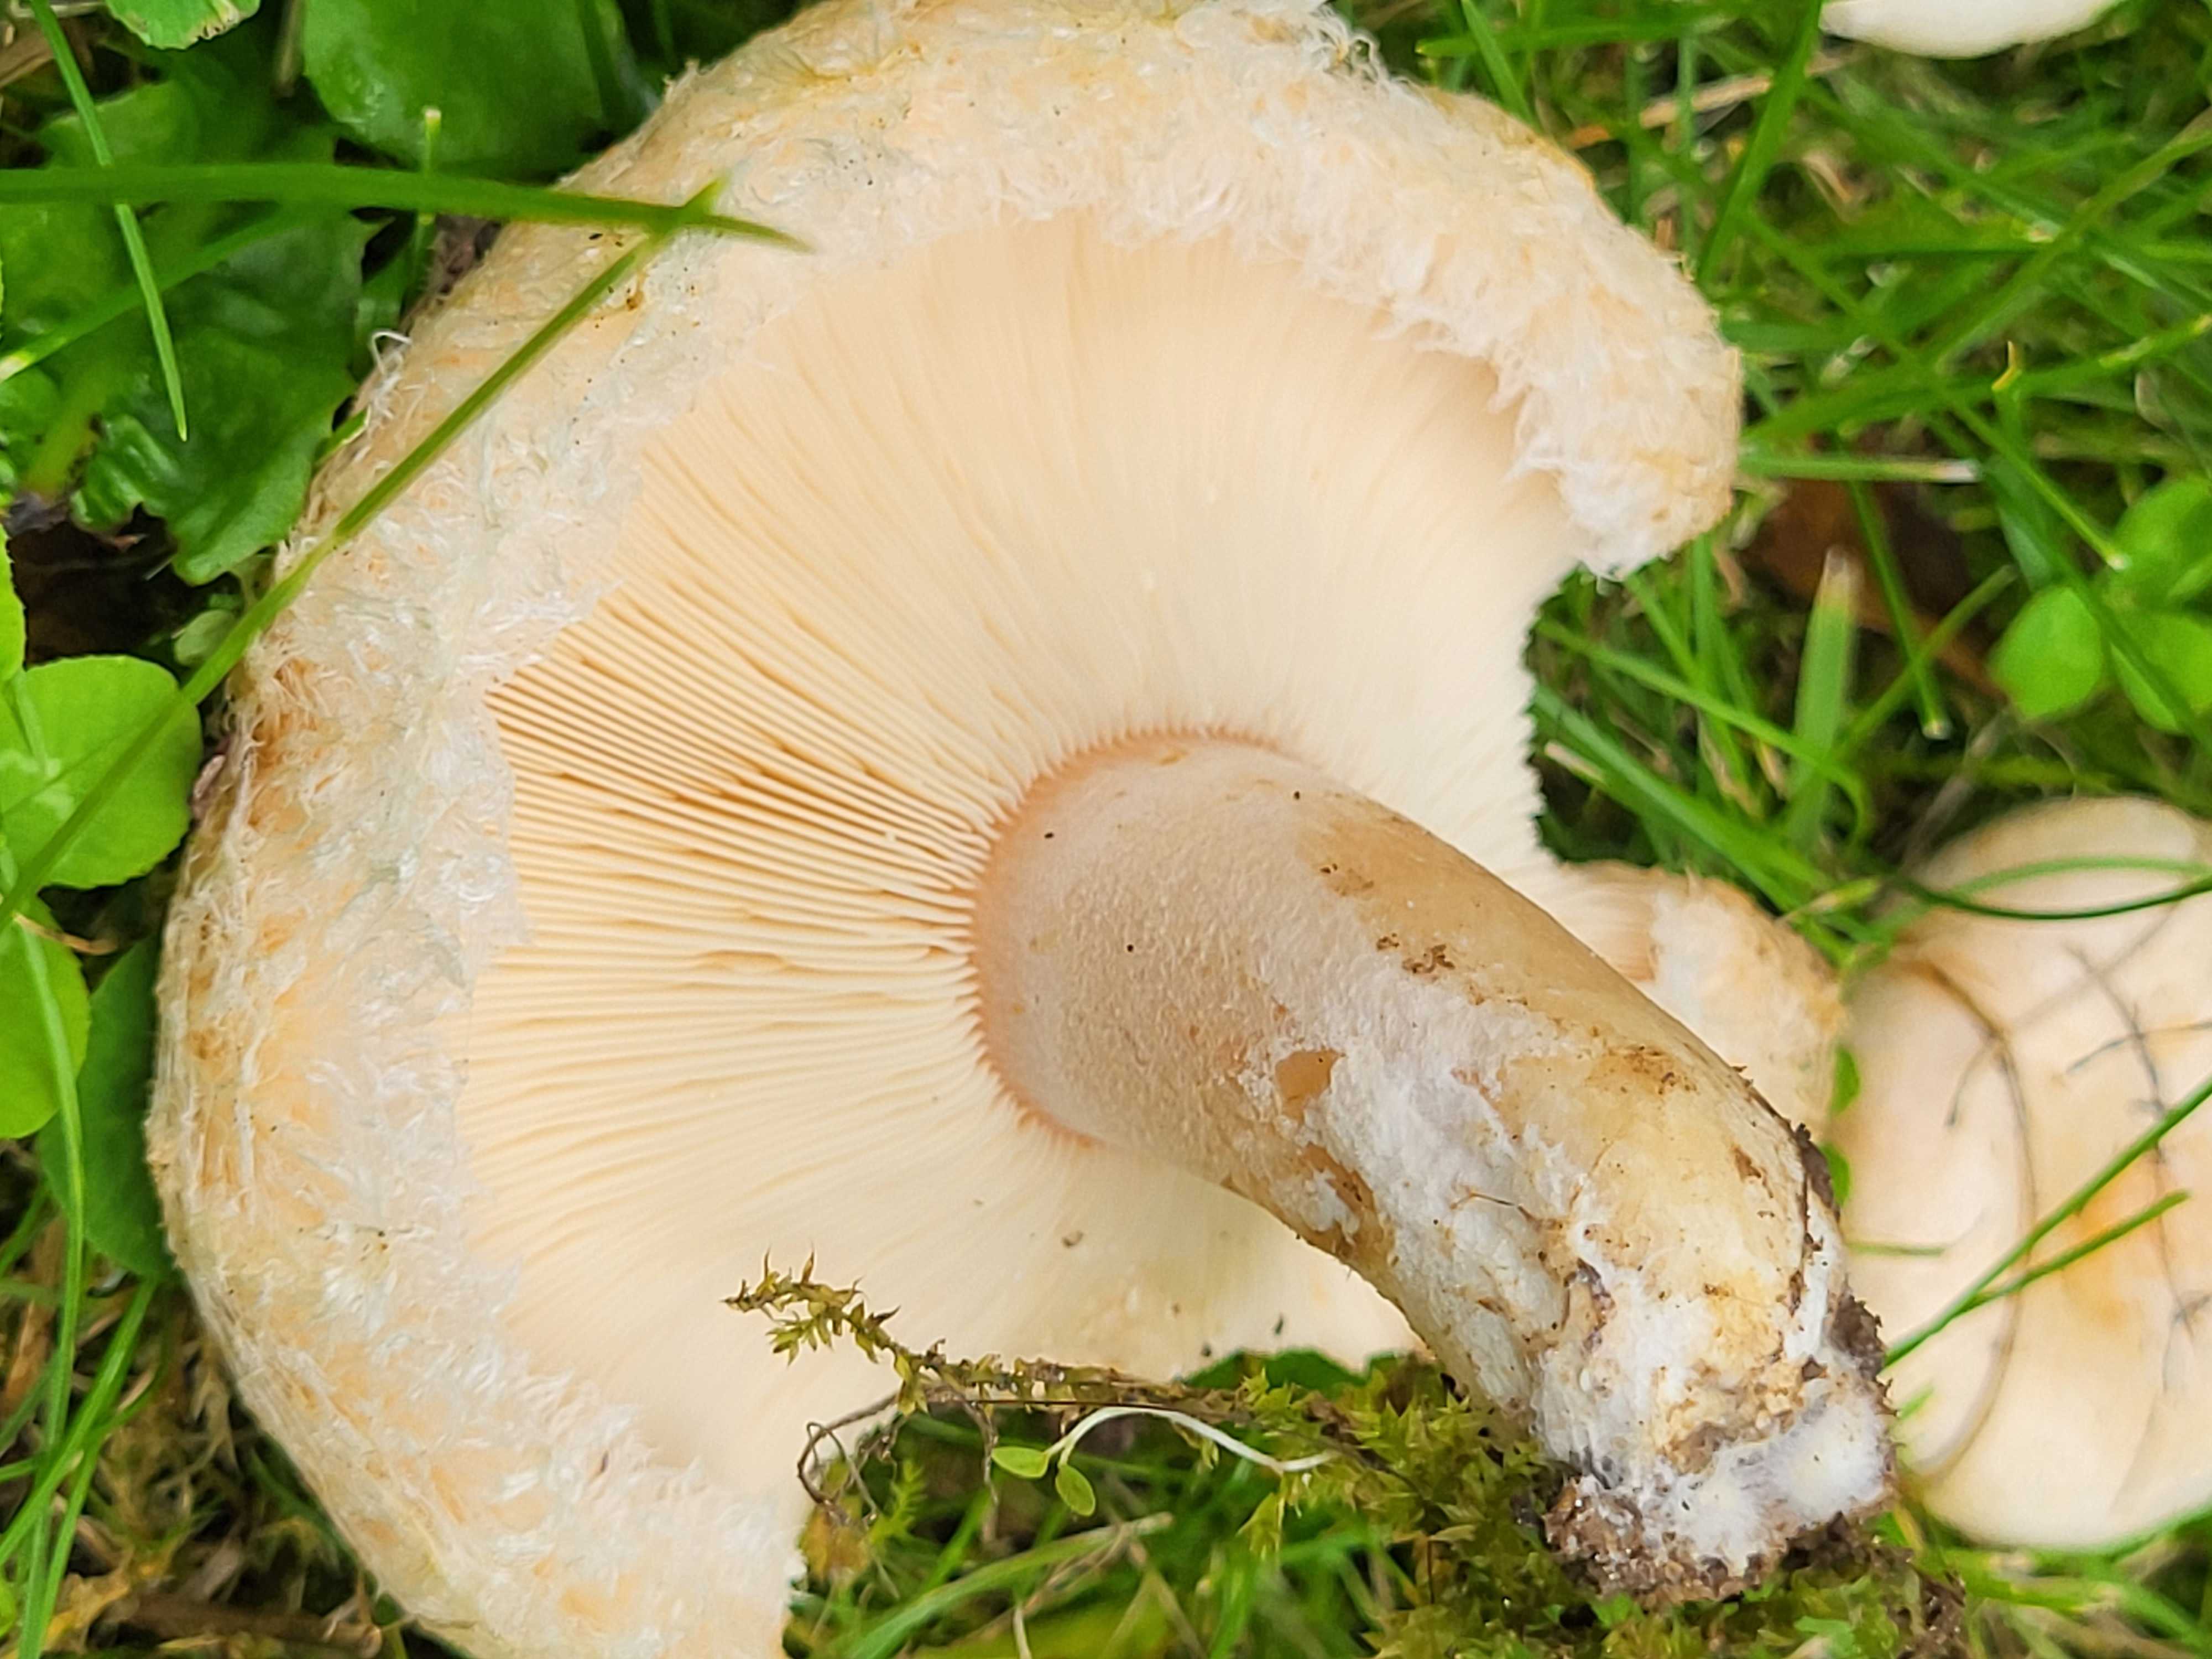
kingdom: Fungi
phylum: Basidiomycota
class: Agaricomycetes
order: Russulales
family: Russulaceae
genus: Lactarius
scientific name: Lactarius pubescens
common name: dunet mælkehat
